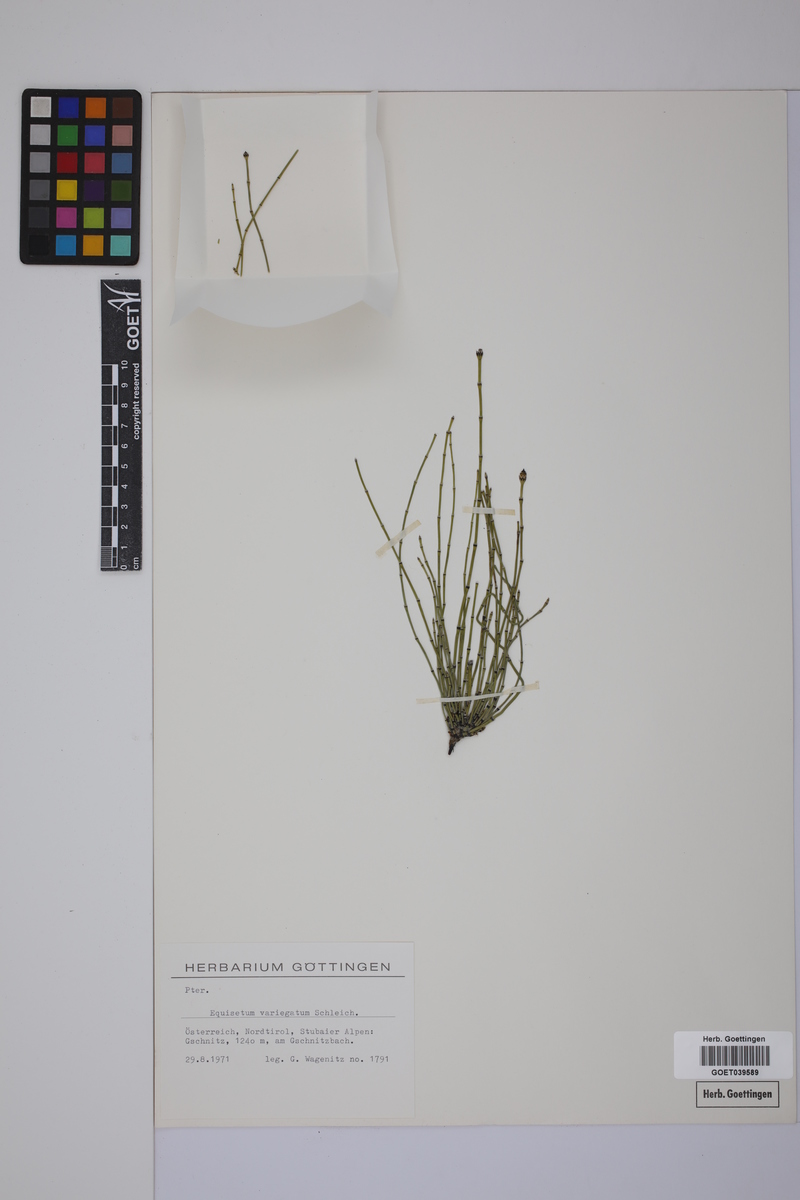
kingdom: Plantae
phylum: Tracheophyta
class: Polypodiopsida
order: Equisetales
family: Equisetaceae
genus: Equisetum
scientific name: Equisetum variegatum
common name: Variegated horsetail
